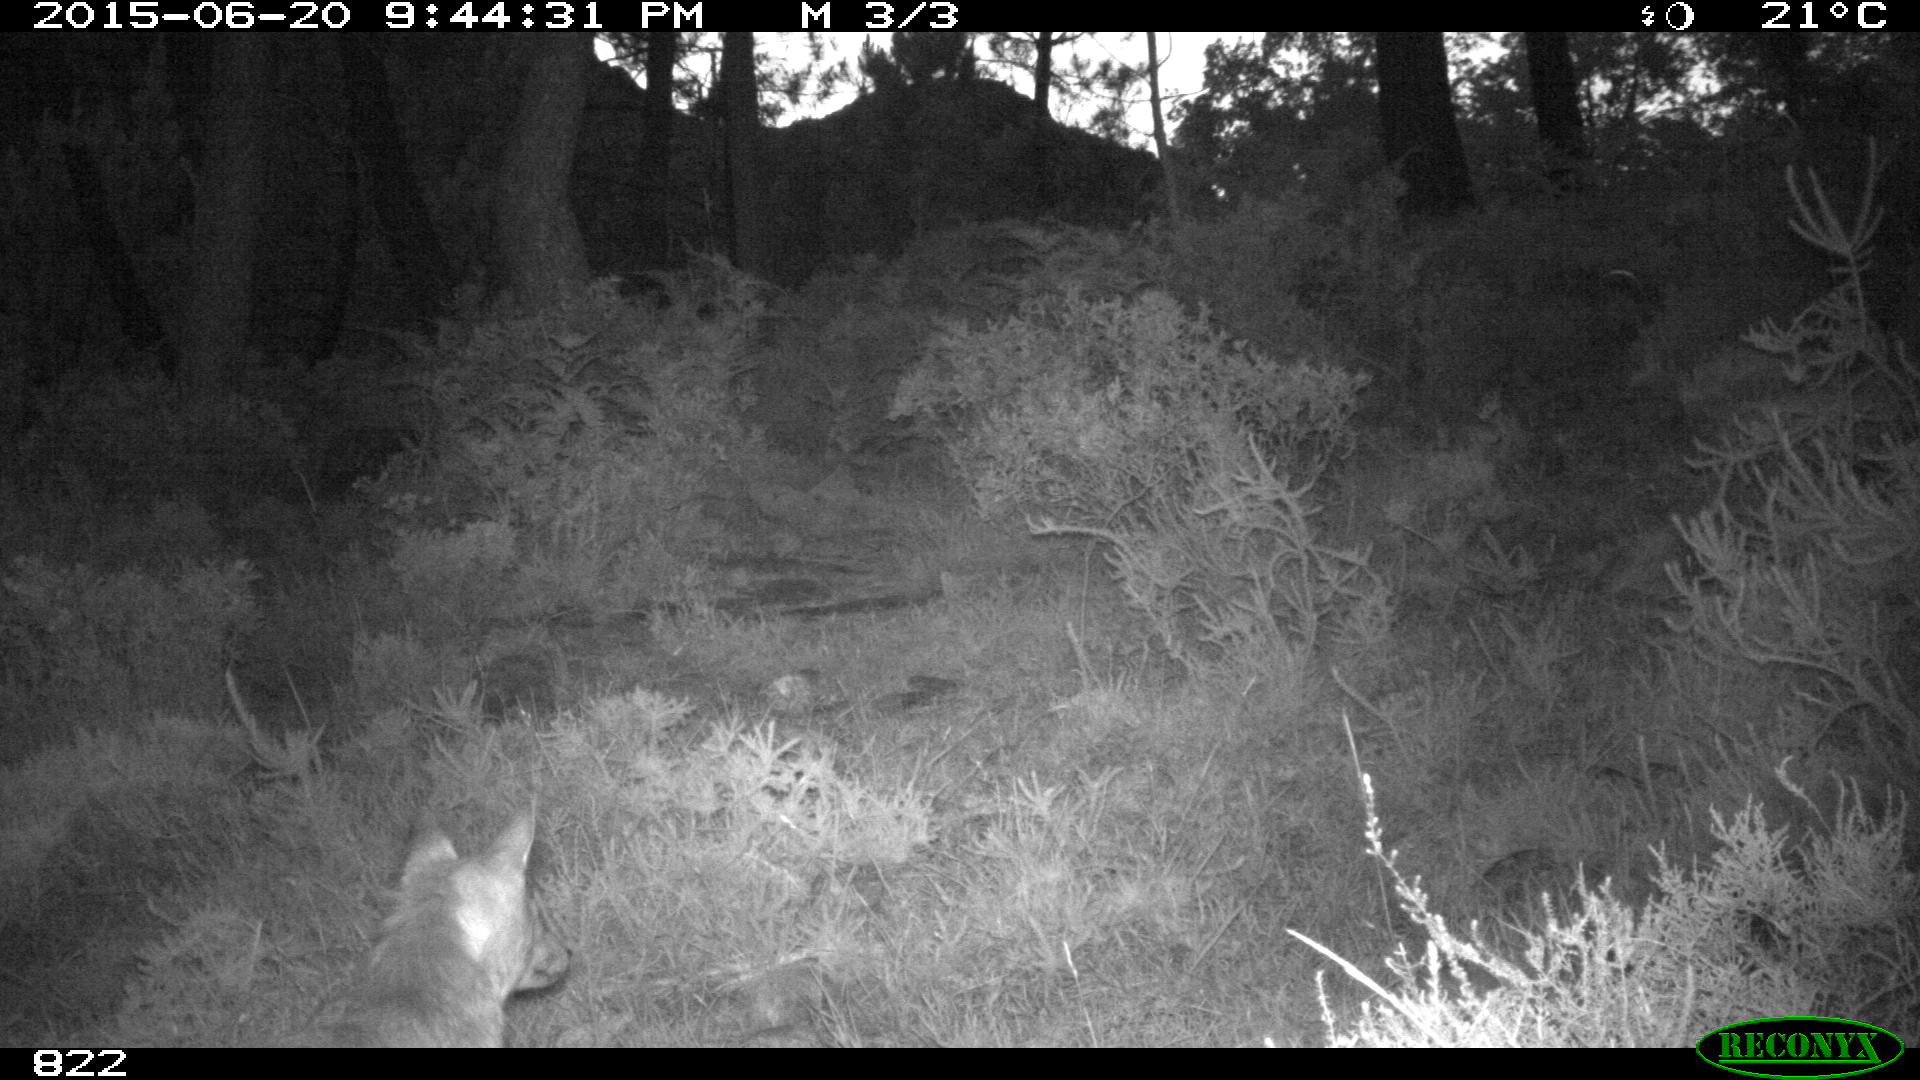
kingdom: Animalia
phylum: Chordata
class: Mammalia
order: Carnivora
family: Canidae
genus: Vulpes
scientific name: Vulpes vulpes
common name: Red fox
